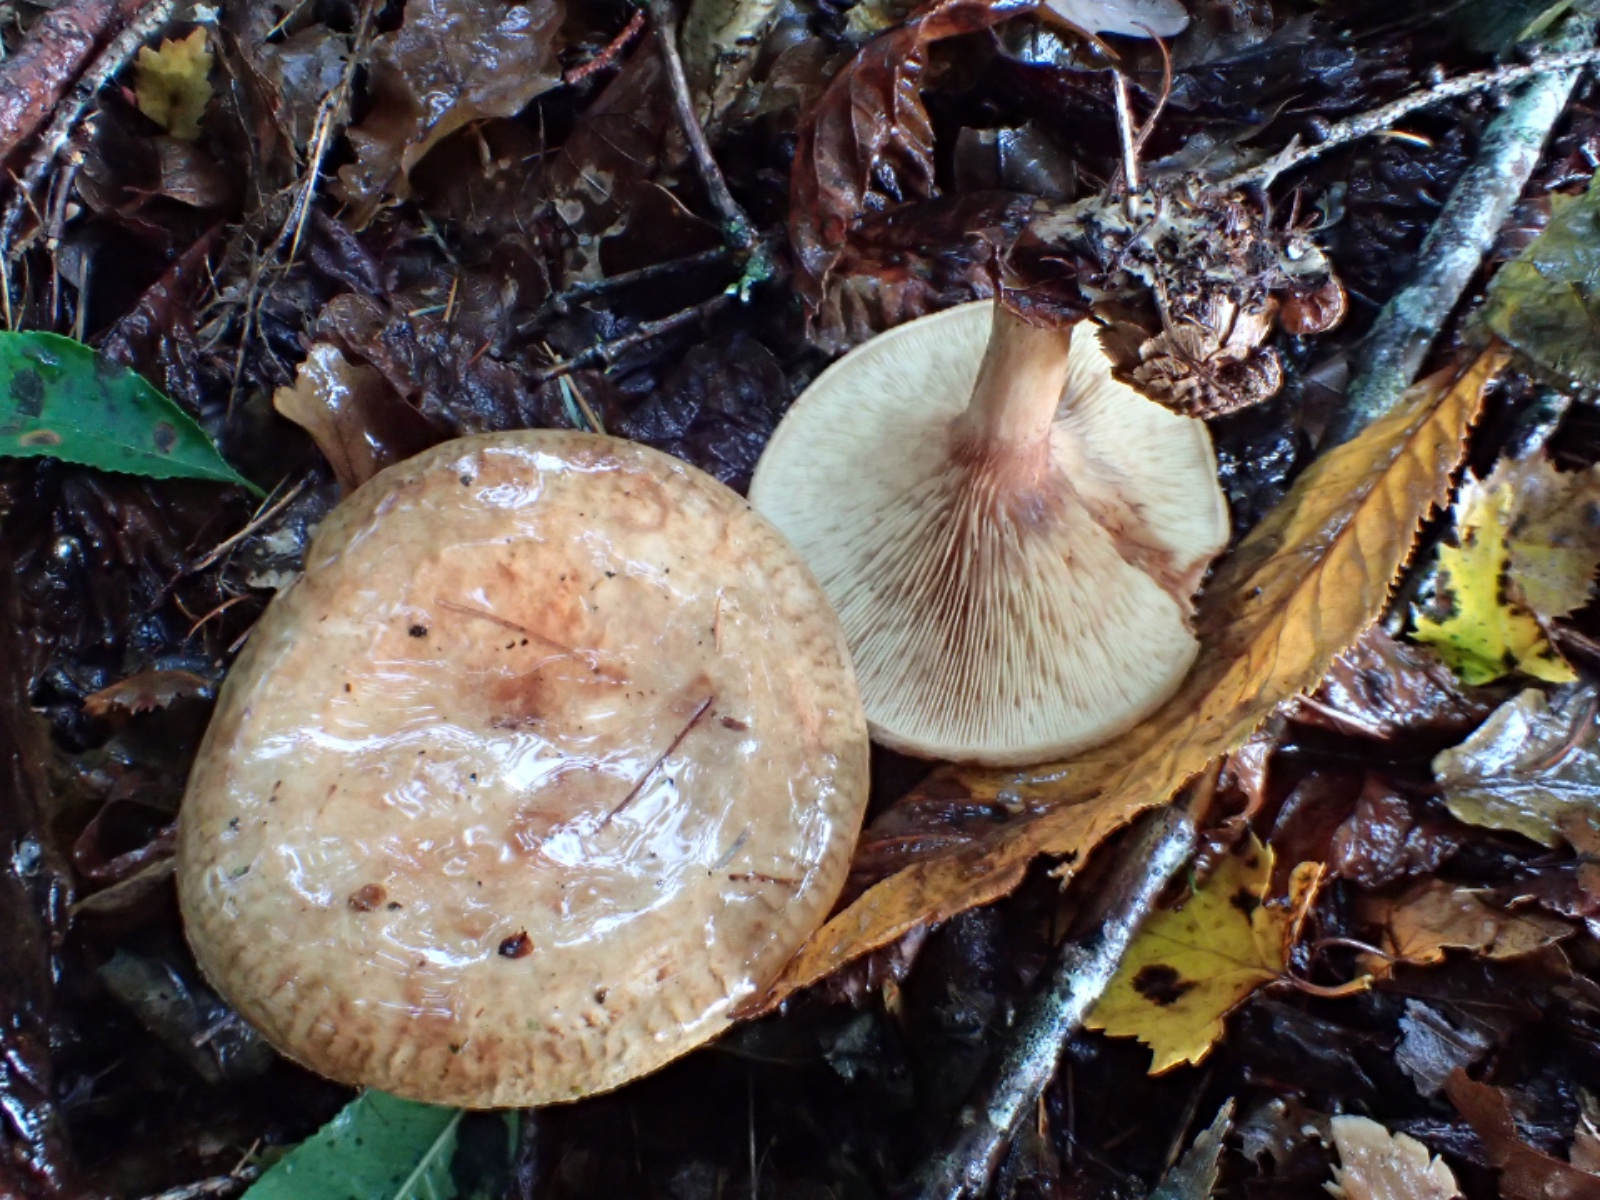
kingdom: Fungi
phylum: Basidiomycota
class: Agaricomycetes
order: Boletales
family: Paxillaceae
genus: Paxillus
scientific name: Paxillus involutus
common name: almindelig netbladhat
